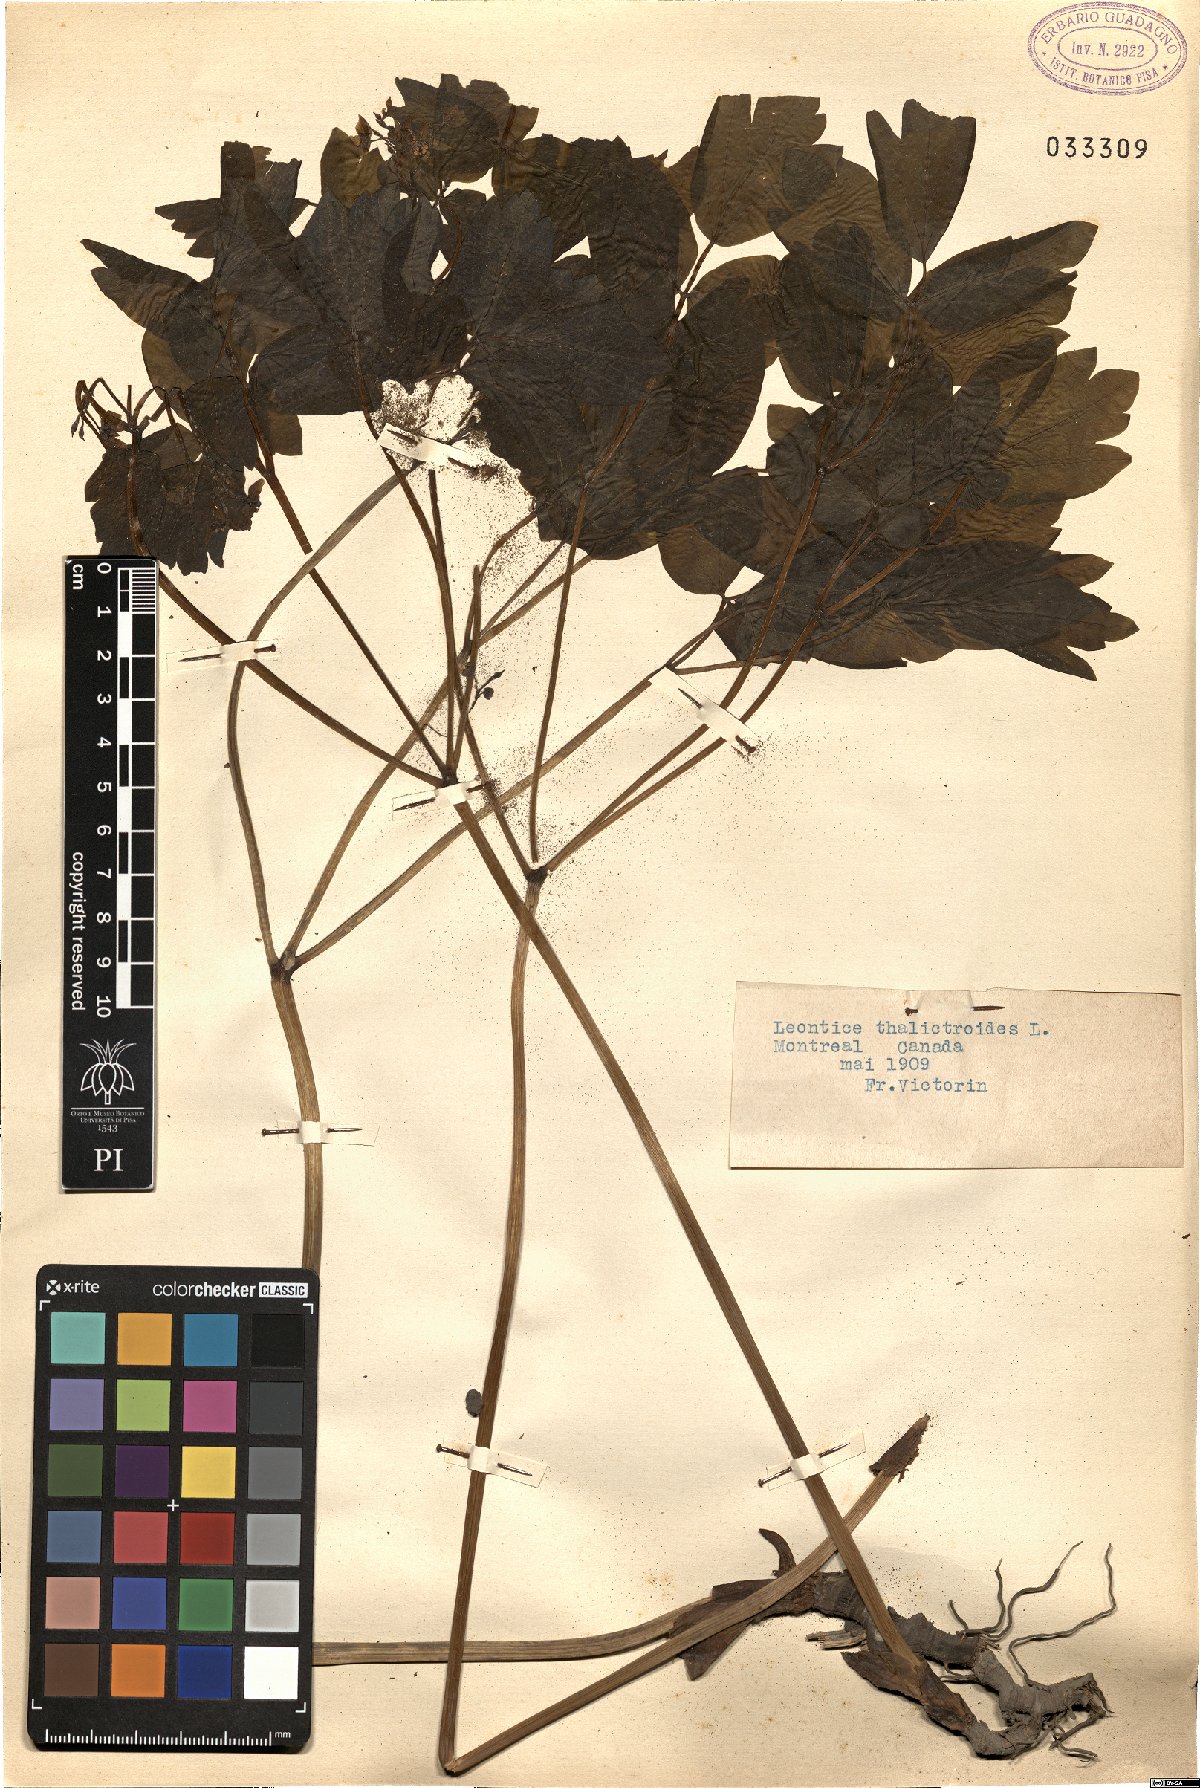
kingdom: Plantae
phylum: Tracheophyta
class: Magnoliopsida
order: Ranunculales
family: Berberidaceae
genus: Caulophyllum
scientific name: Caulophyllum thalictroides
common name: Blue cohosh
